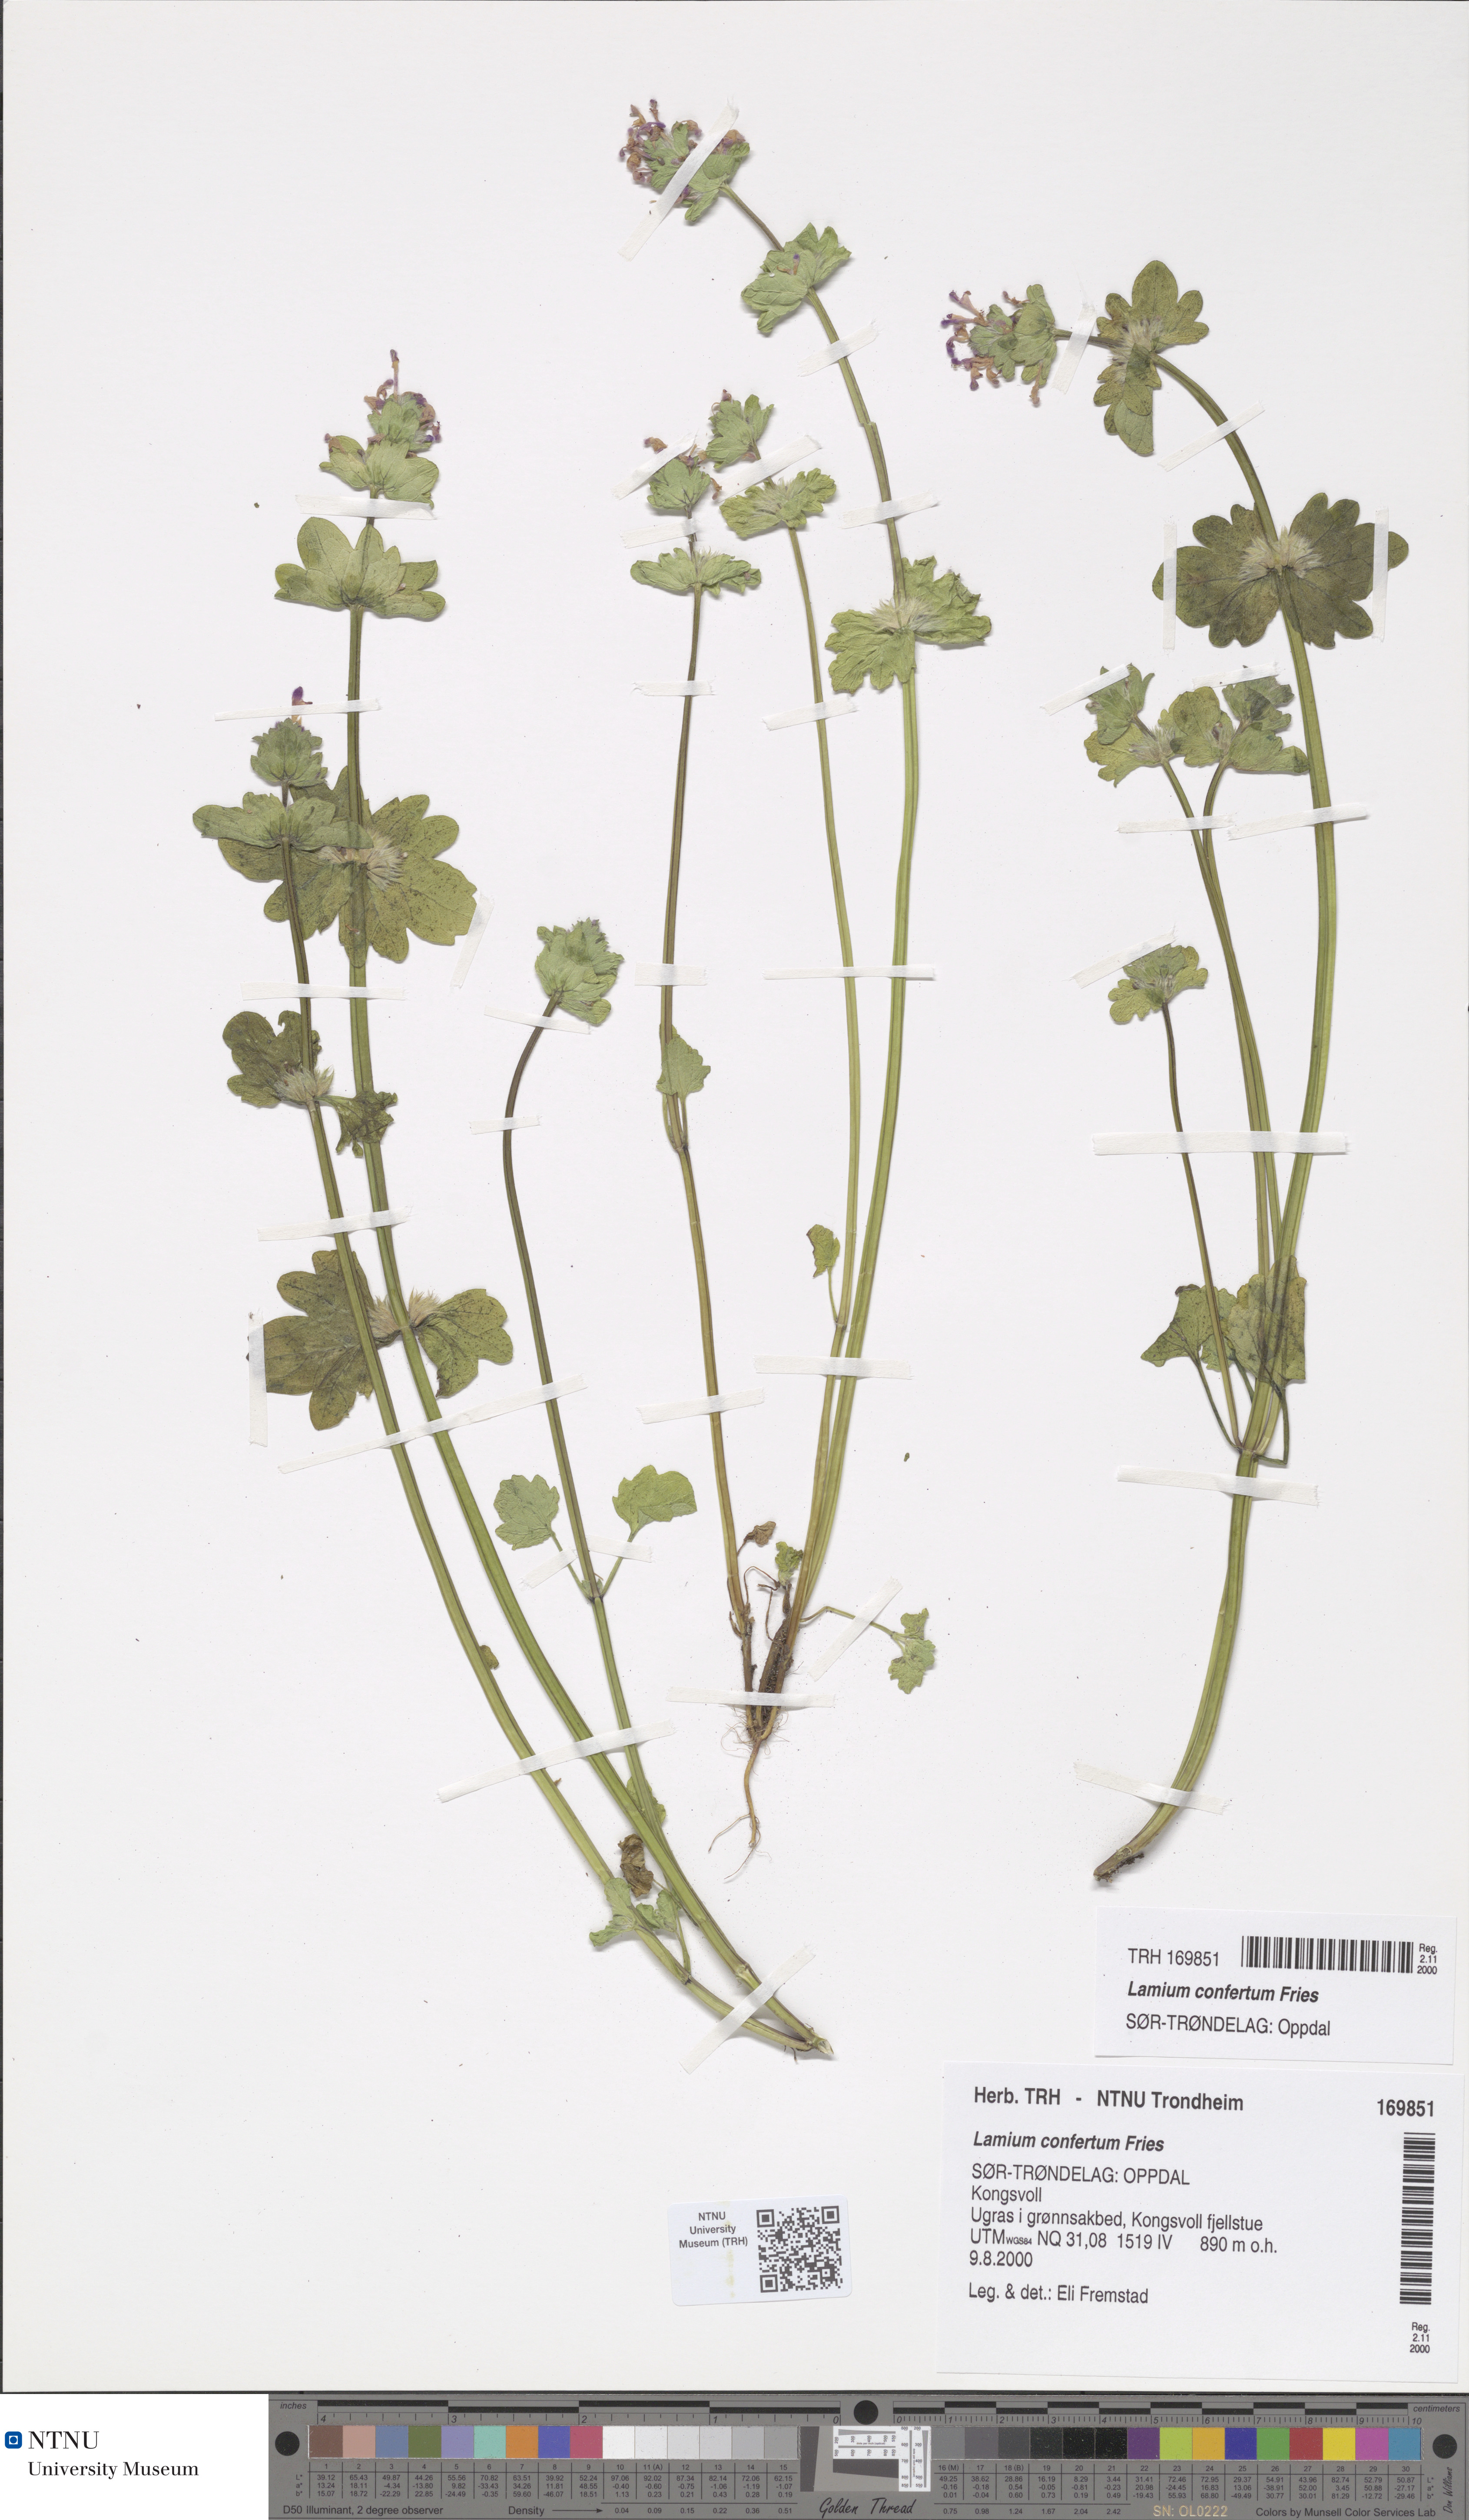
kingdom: Plantae
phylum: Tracheophyta
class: Magnoliopsida
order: Lamiales
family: Lamiaceae
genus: Lamium
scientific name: Lamium confertum
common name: Northern dead-nettle
